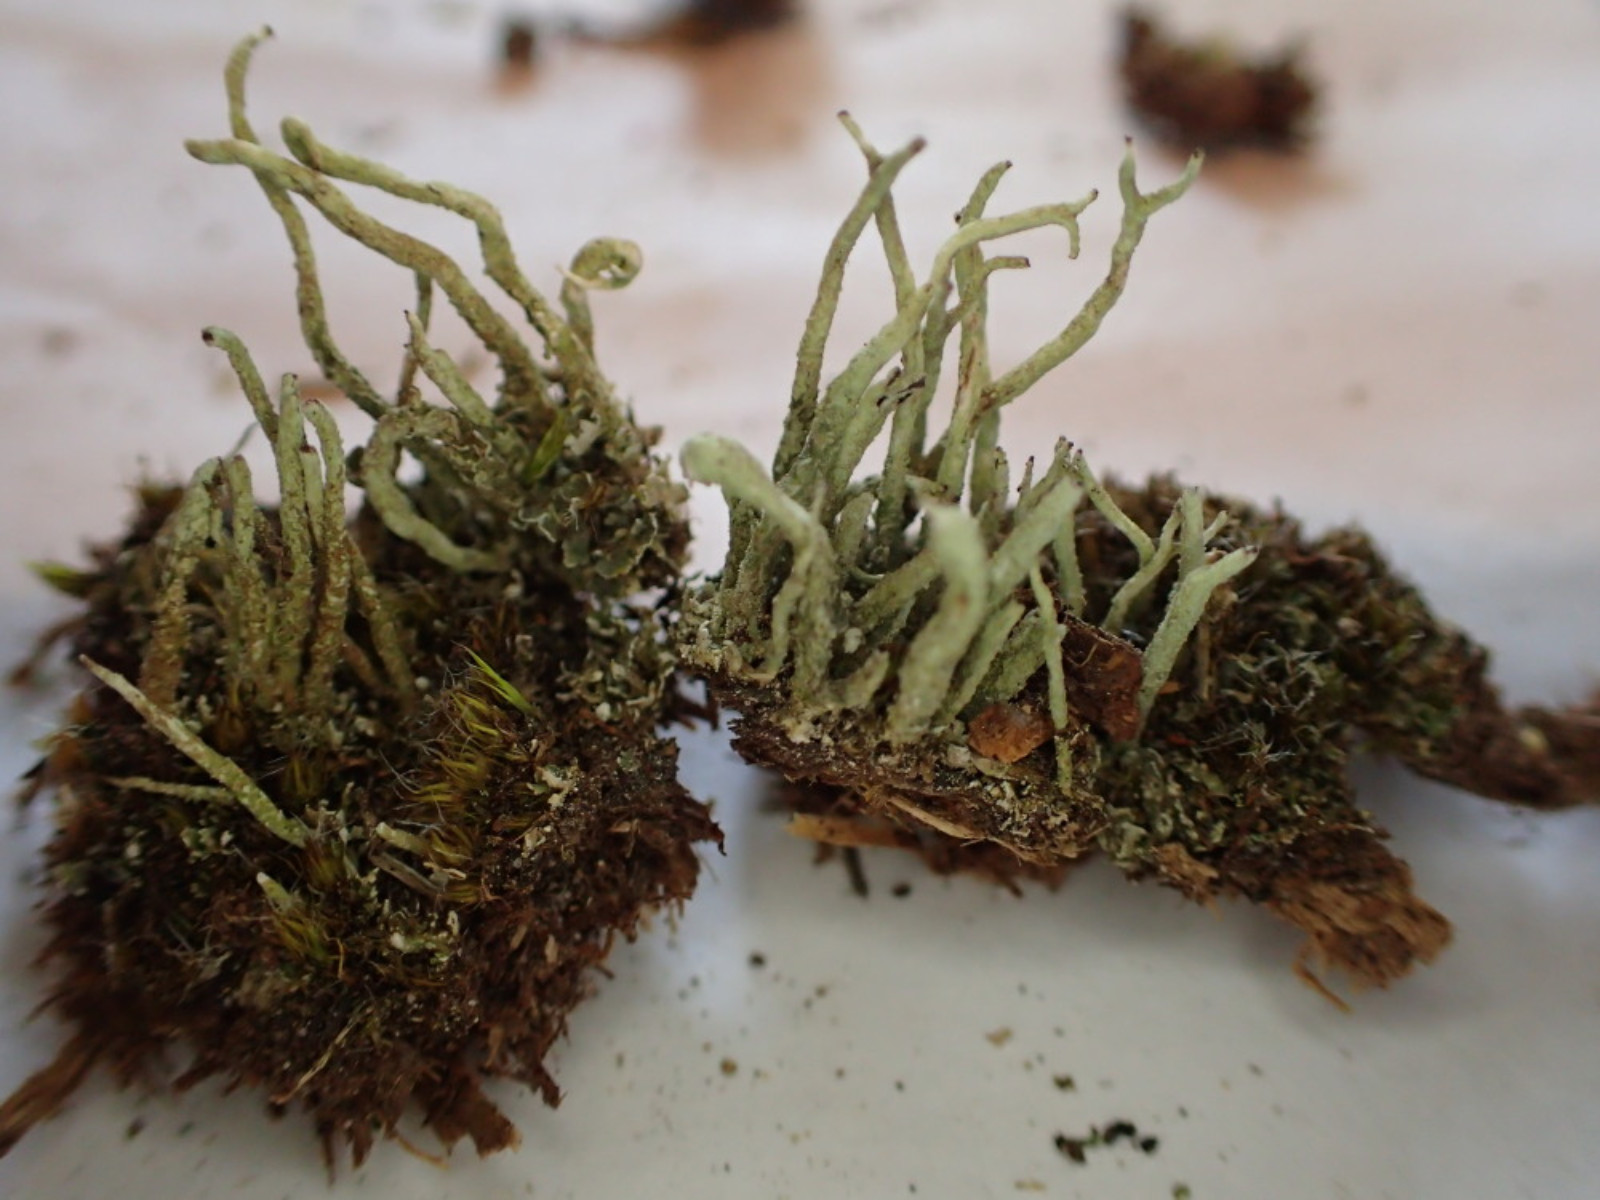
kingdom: Fungi
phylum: Ascomycota
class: Lecanoromycetes
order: Lecanorales
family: Cladoniaceae
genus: Cladonia
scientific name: Cladonia macilenta
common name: indsvunden bægerlav
